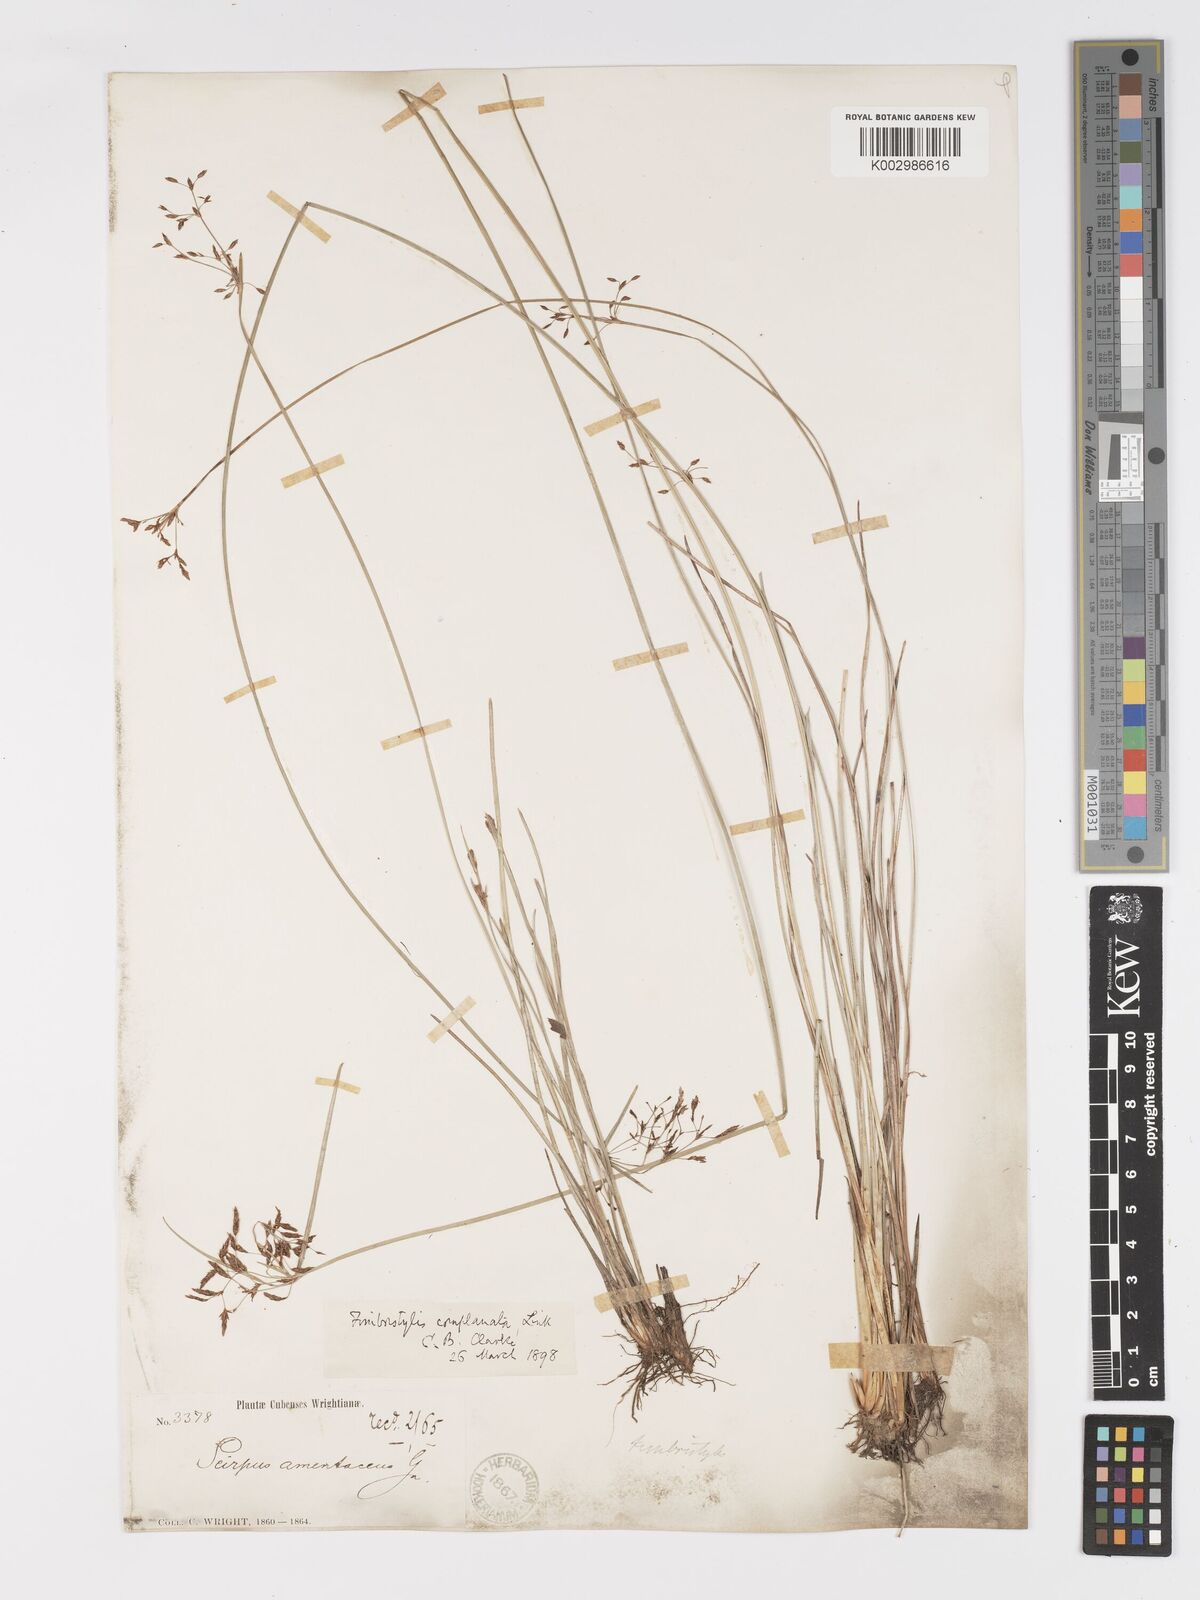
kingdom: Plantae
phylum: Tracheophyta
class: Liliopsida
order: Poales
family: Cyperaceae
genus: Fimbristylis
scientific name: Fimbristylis complanata
